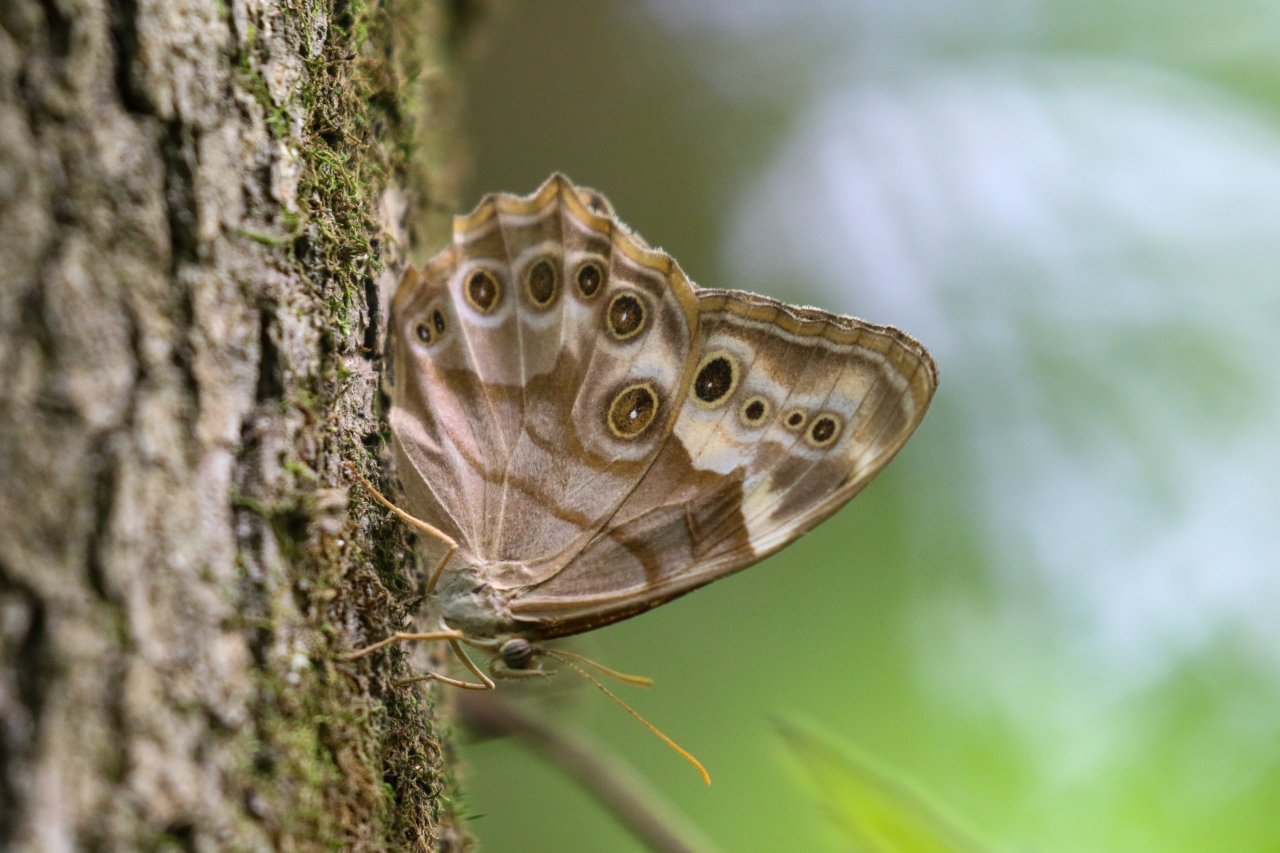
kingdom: Animalia
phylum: Arthropoda
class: Insecta
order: Lepidoptera
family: Nymphalidae
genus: Enodia
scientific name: Enodia portlandia
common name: Southern Pearly Eye
